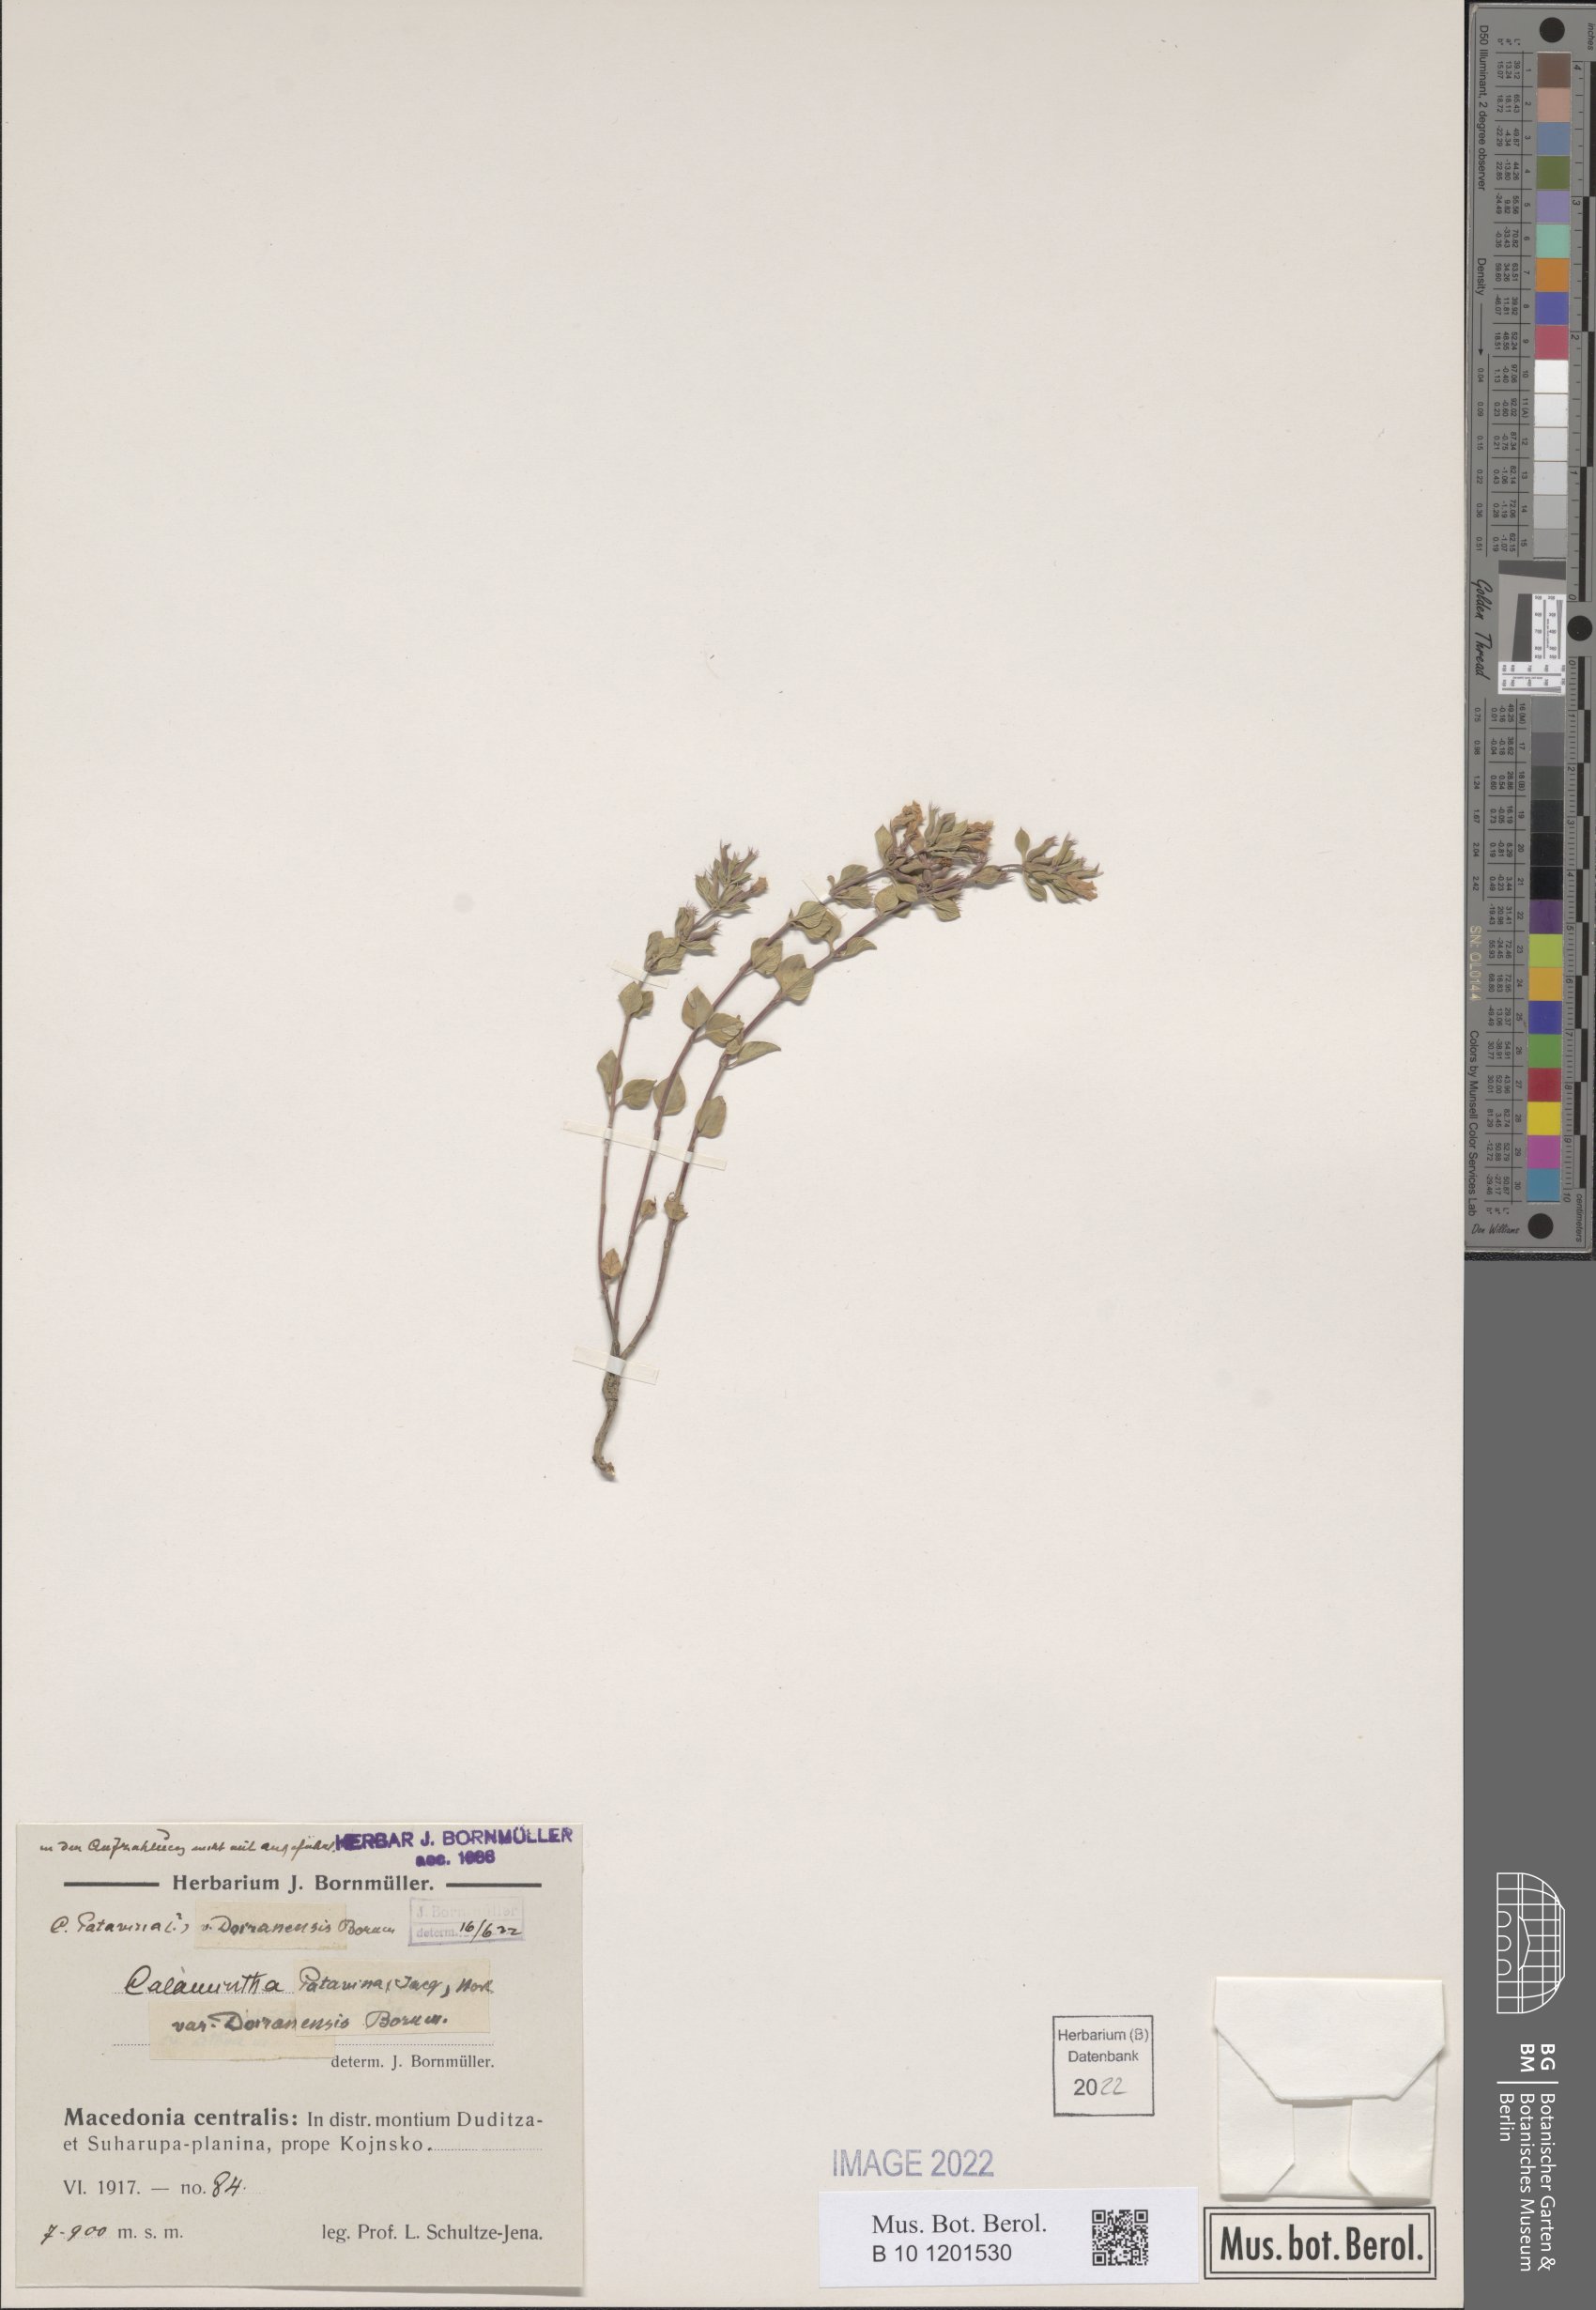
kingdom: Plantae
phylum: Tracheophyta
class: Magnoliopsida
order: Lamiales
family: Lamiaceae
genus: Clinopodium
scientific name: Clinopodium alpinum
